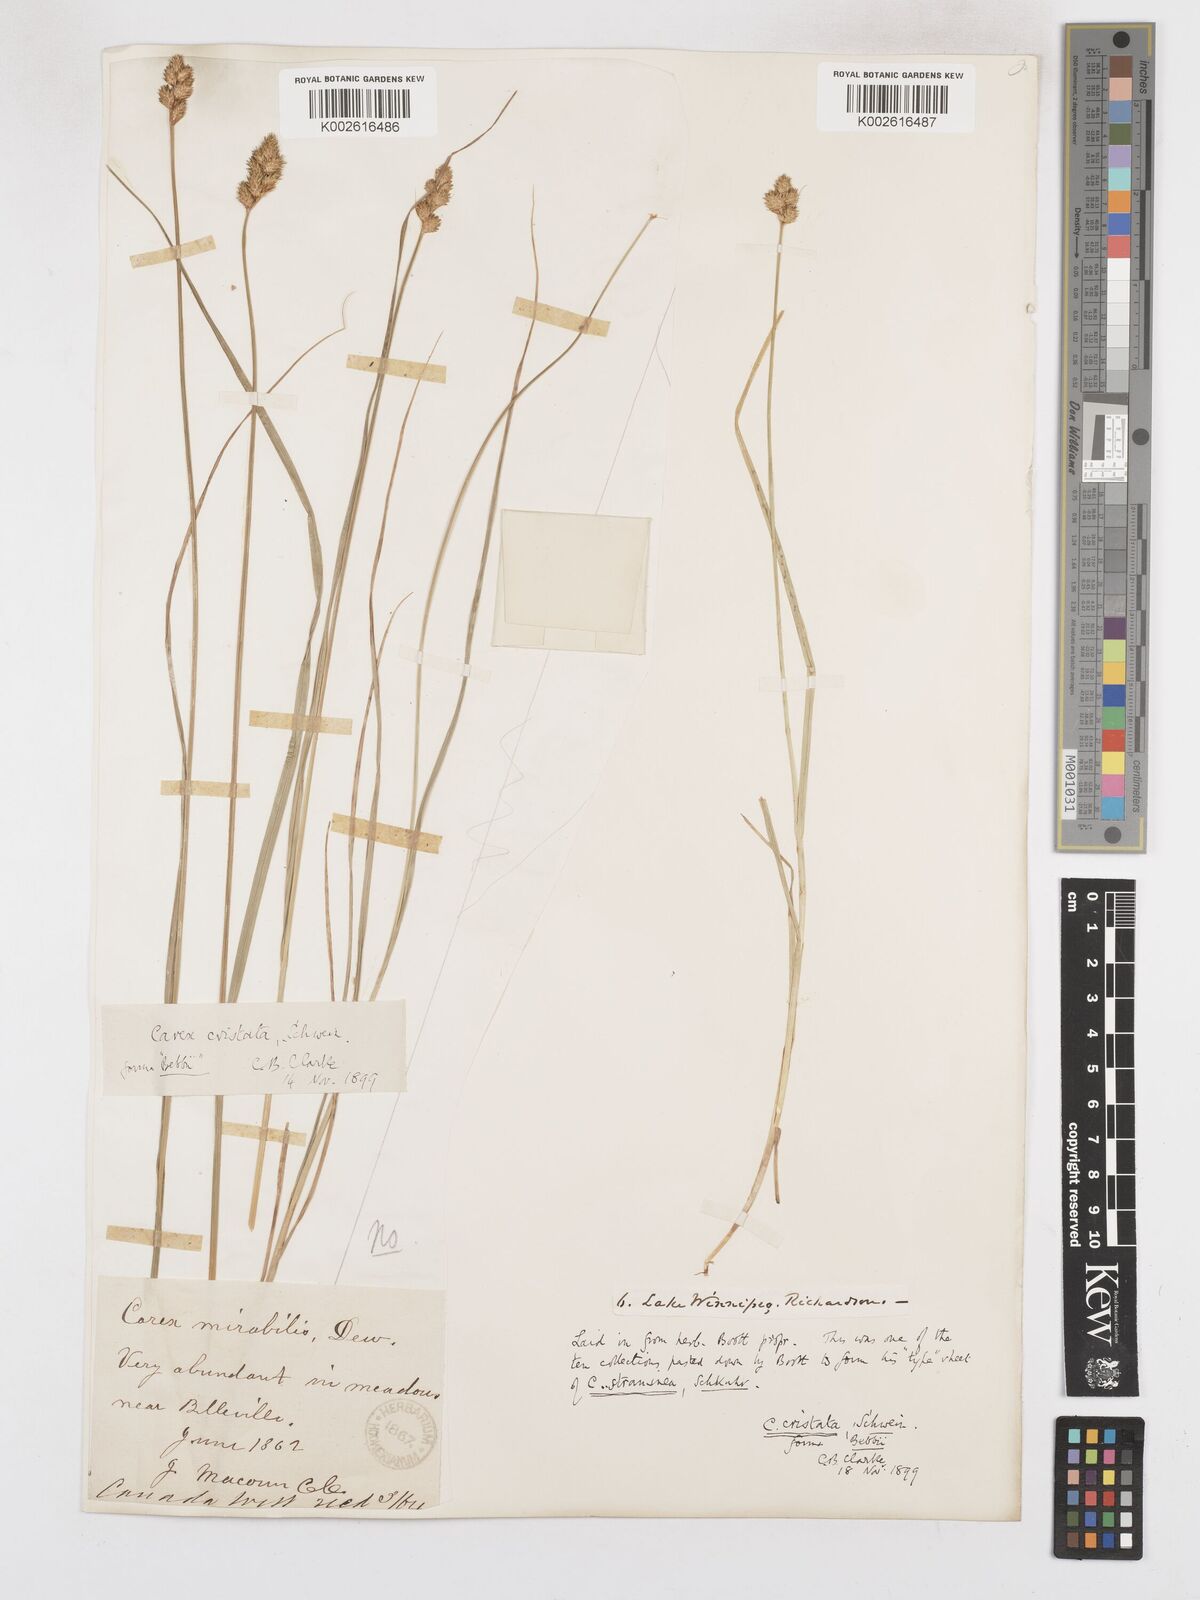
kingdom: Plantae
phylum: Tracheophyta
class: Liliopsida
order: Poales
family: Cyperaceae
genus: Carex
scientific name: Carex cristatella
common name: Crested oval sedge
